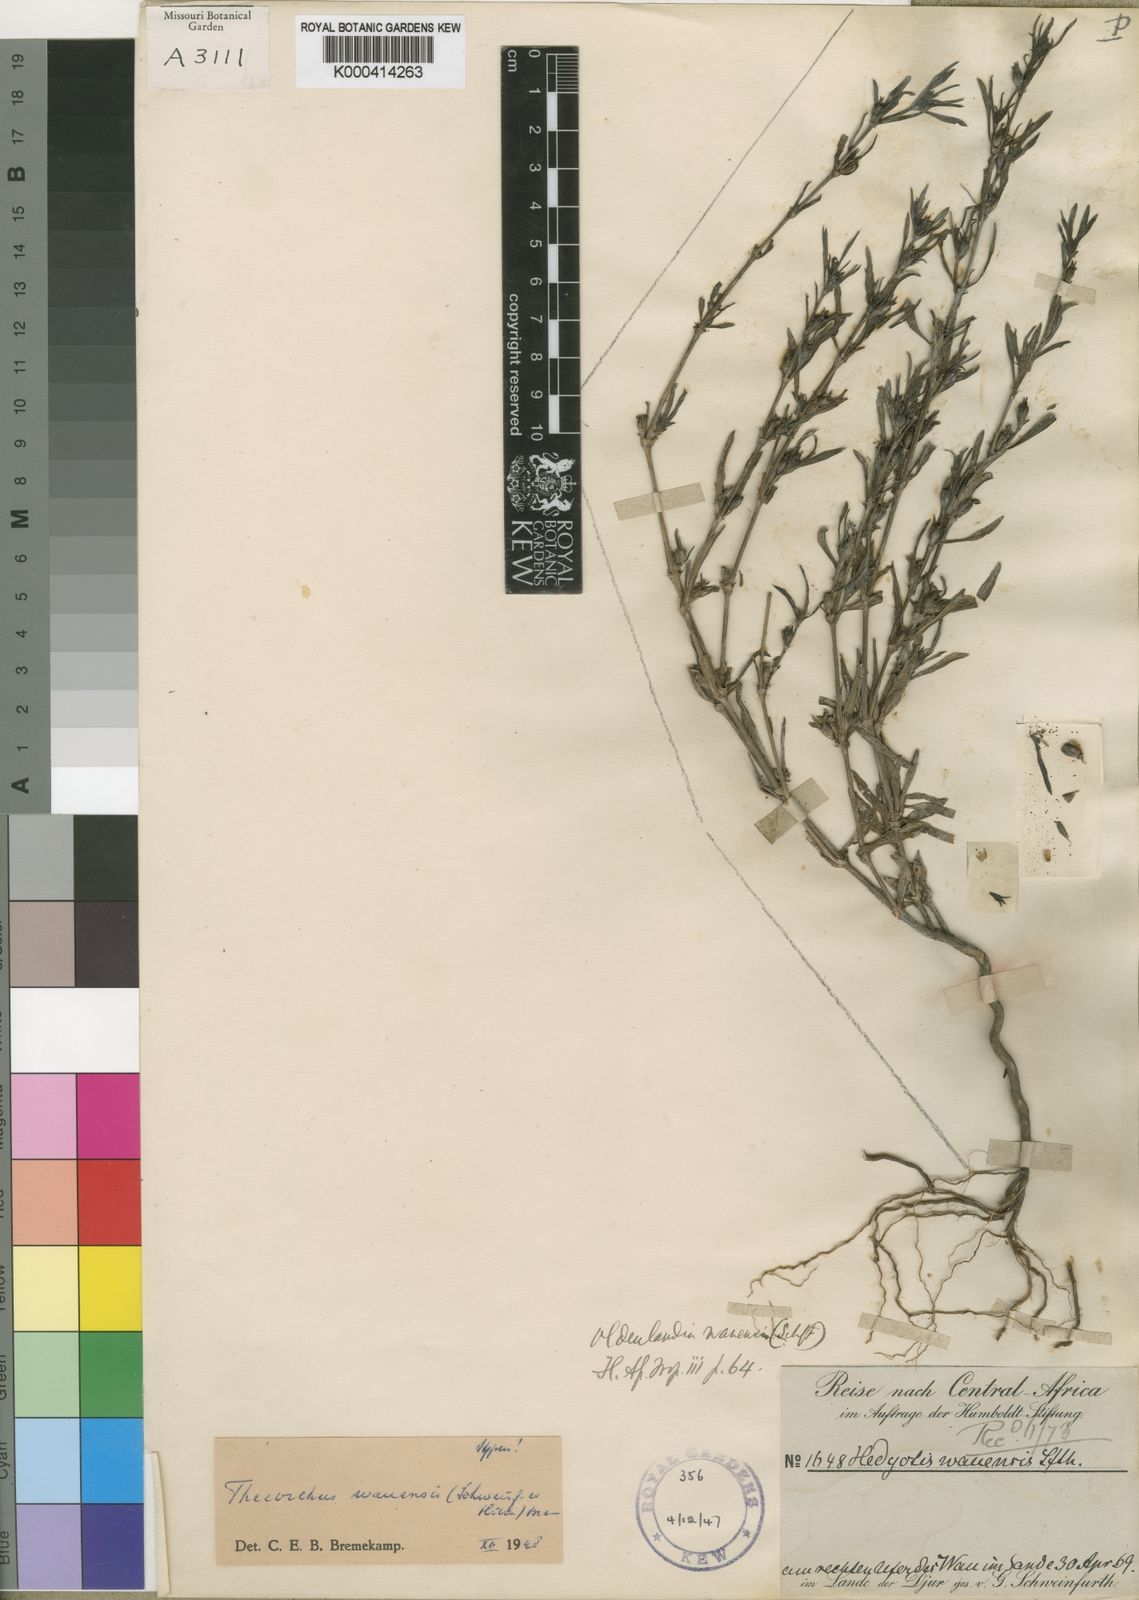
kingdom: Plantae
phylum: Tracheophyta
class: Magnoliopsida
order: Gentianales
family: Rubiaceae
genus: Oldenlandia
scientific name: Oldenlandia wauensis
